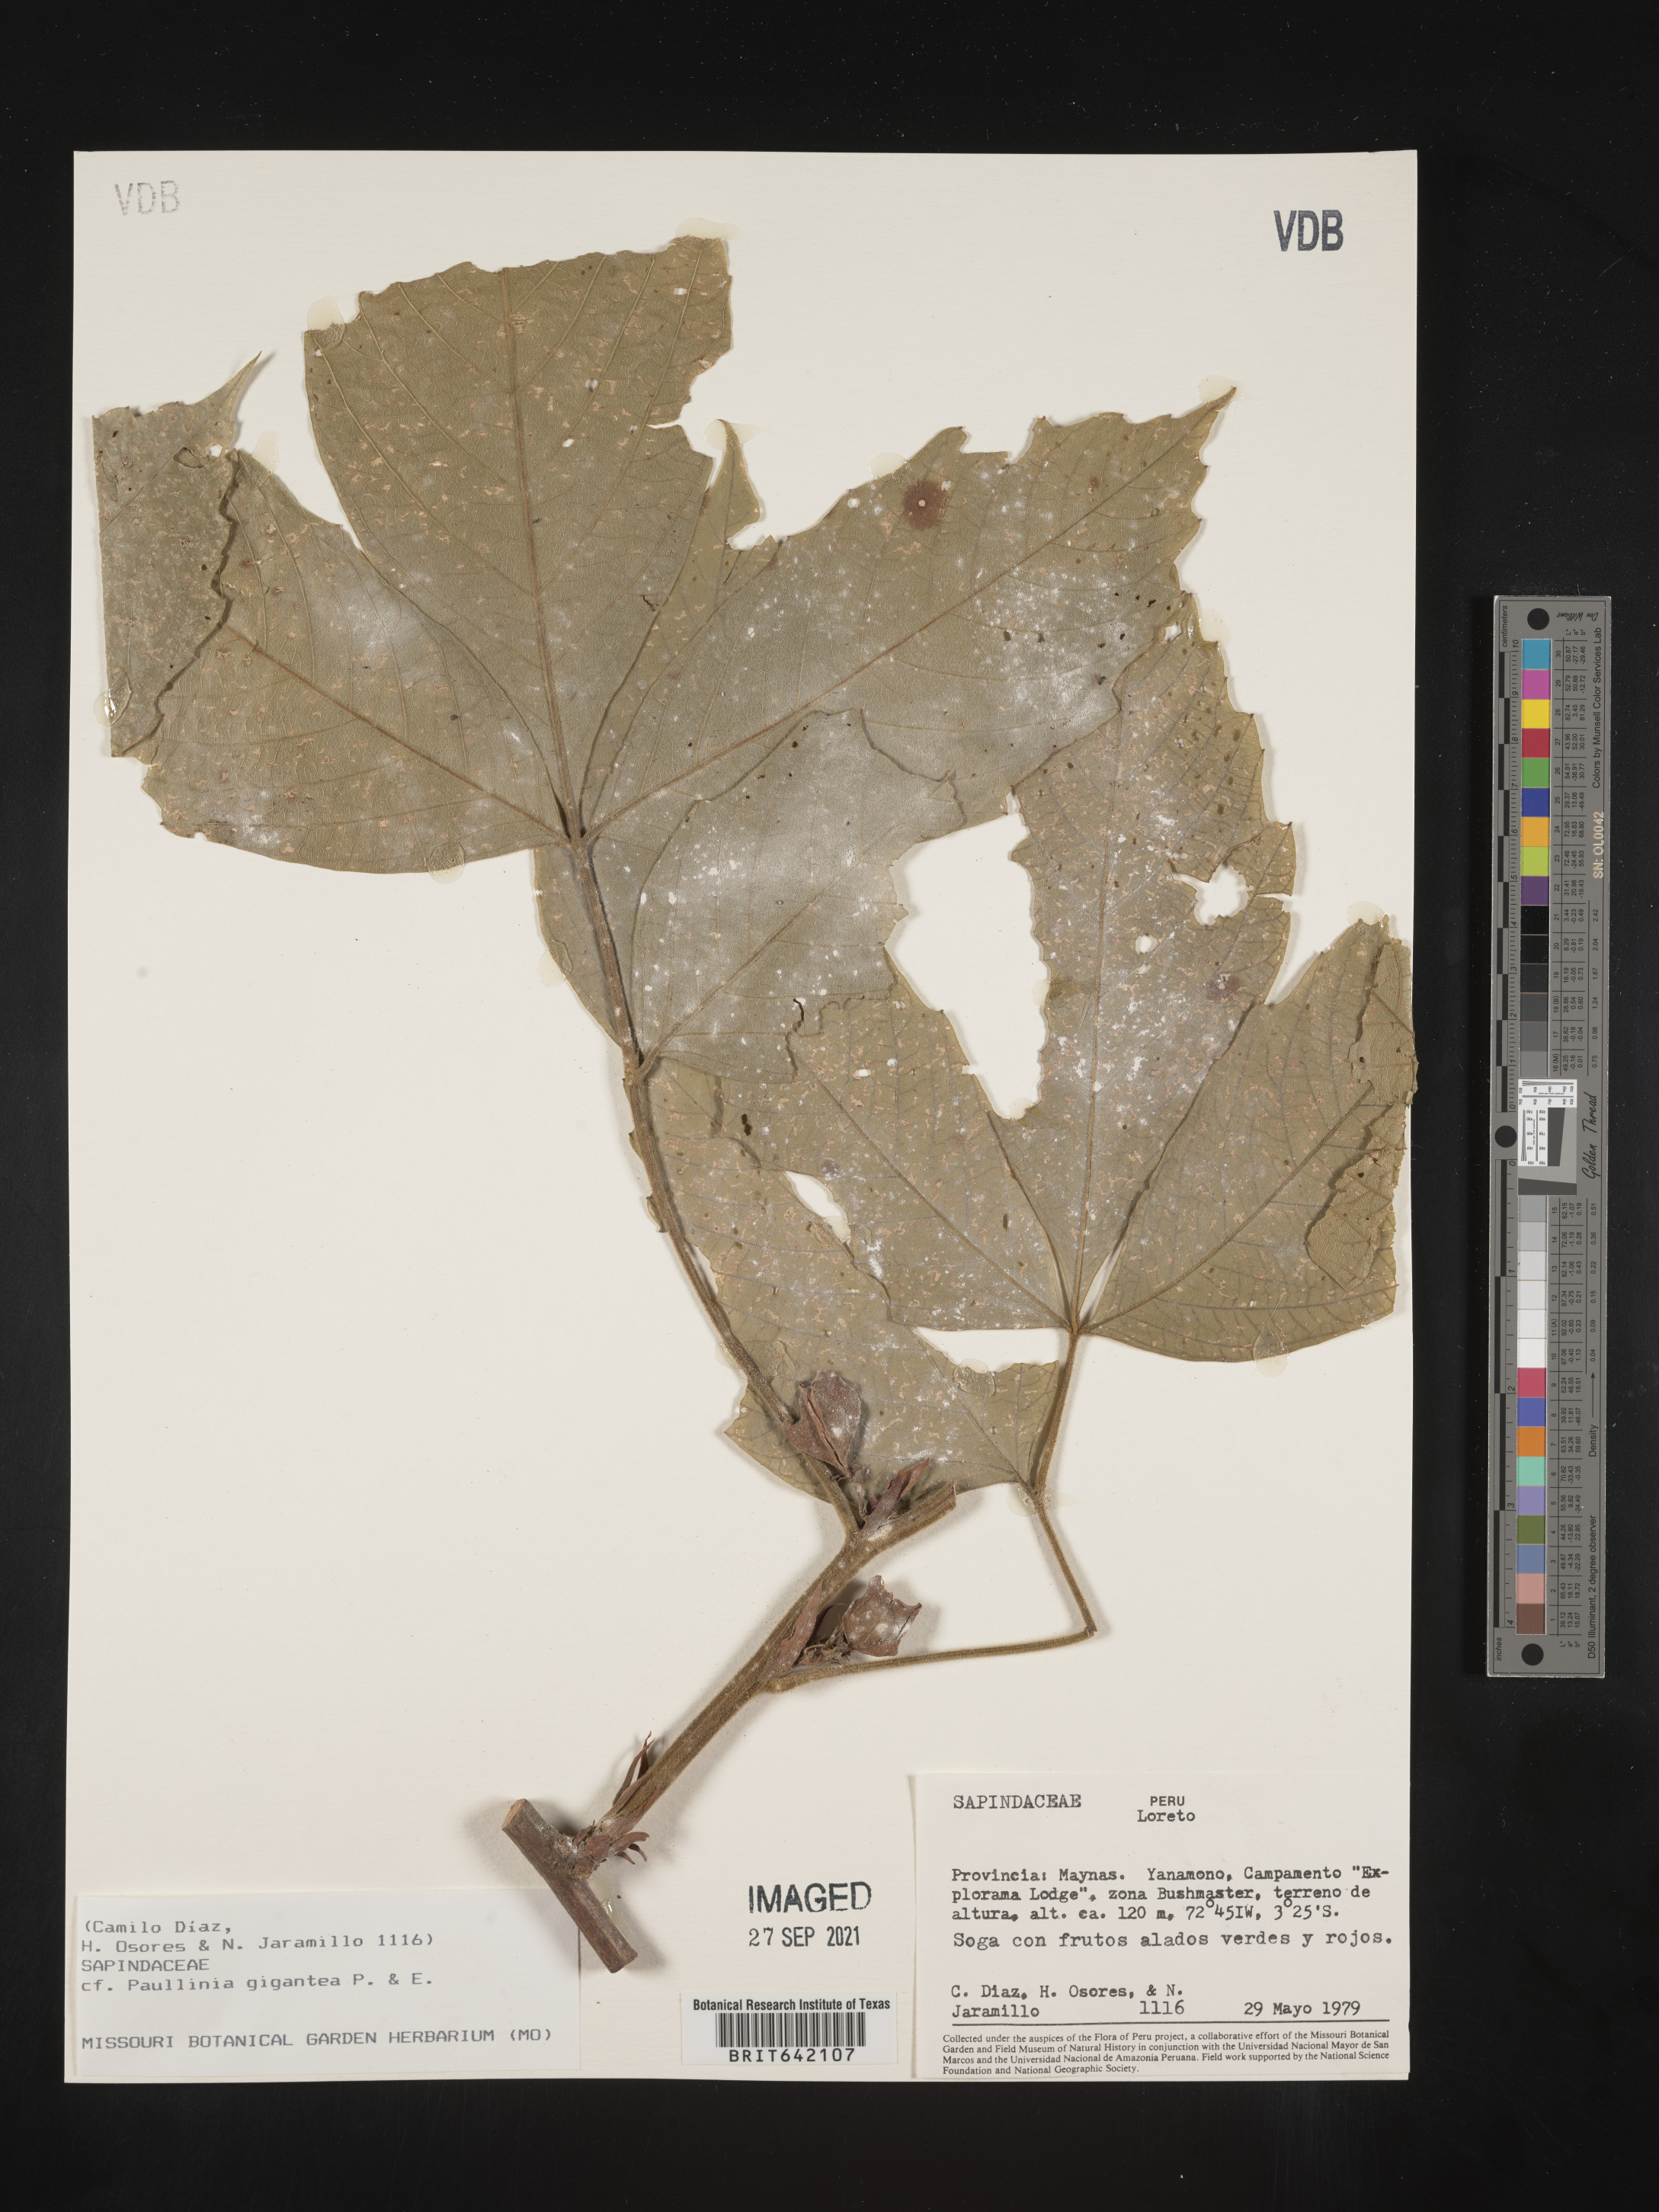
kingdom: Plantae
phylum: Tracheophyta
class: Magnoliopsida
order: Sapindales
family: Sapindaceae
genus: Paullinia
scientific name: Paullinia
